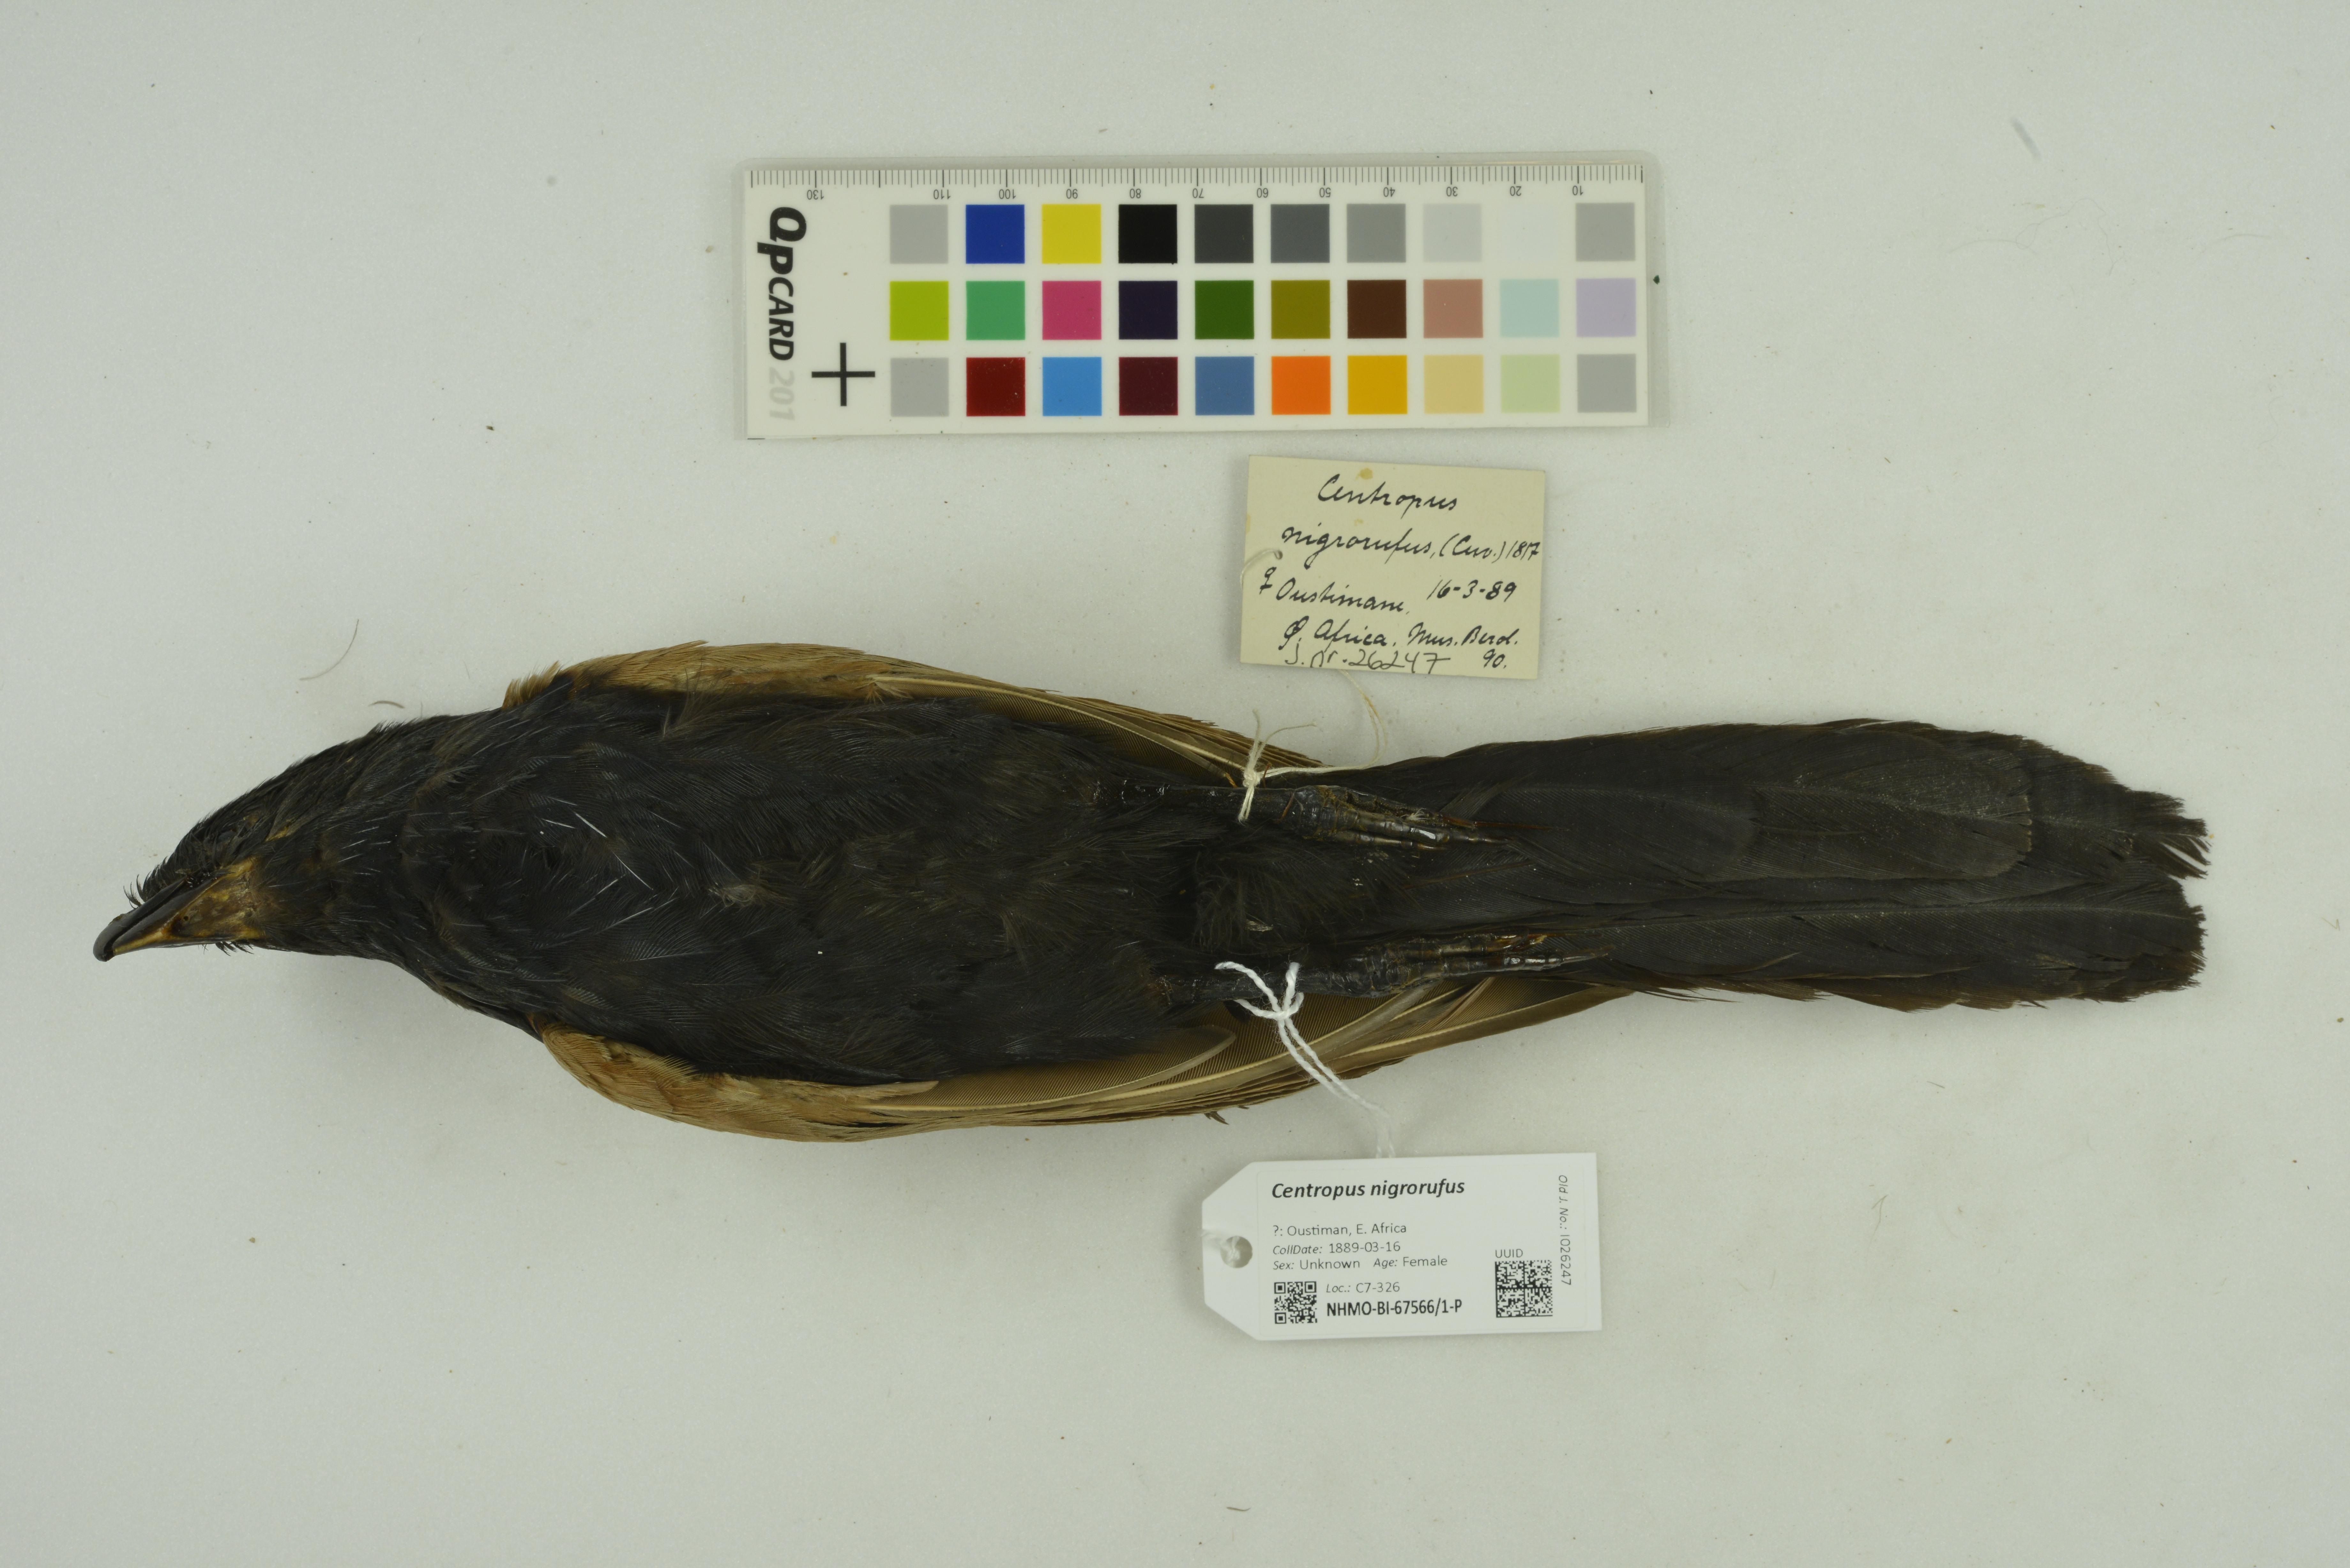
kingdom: Animalia
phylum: Chordata
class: Aves
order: Cuculiformes
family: Cuculidae
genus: Centropus
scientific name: Centropus nigrorufus
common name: Sunda coucal
